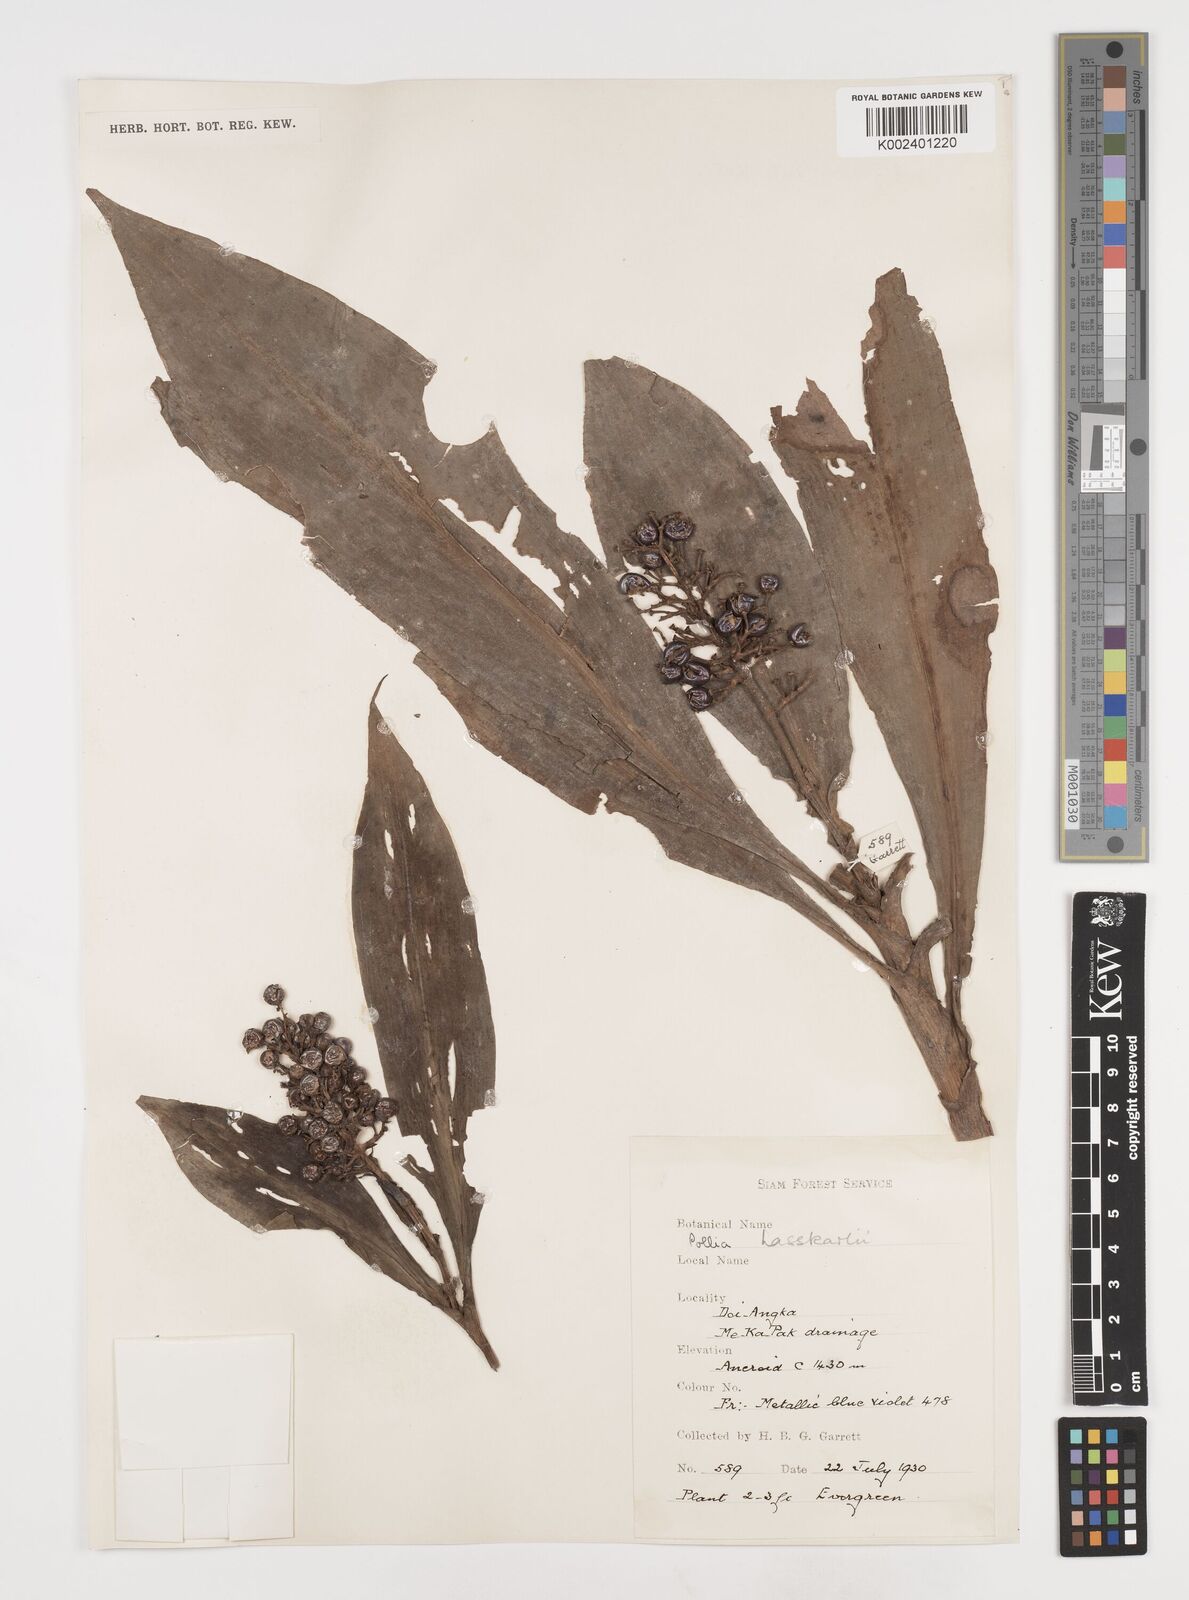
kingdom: Plantae
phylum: Tracheophyta
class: Liliopsida
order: Commelinales
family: Commelinaceae
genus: Pollia
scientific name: Pollia hasskarlii
